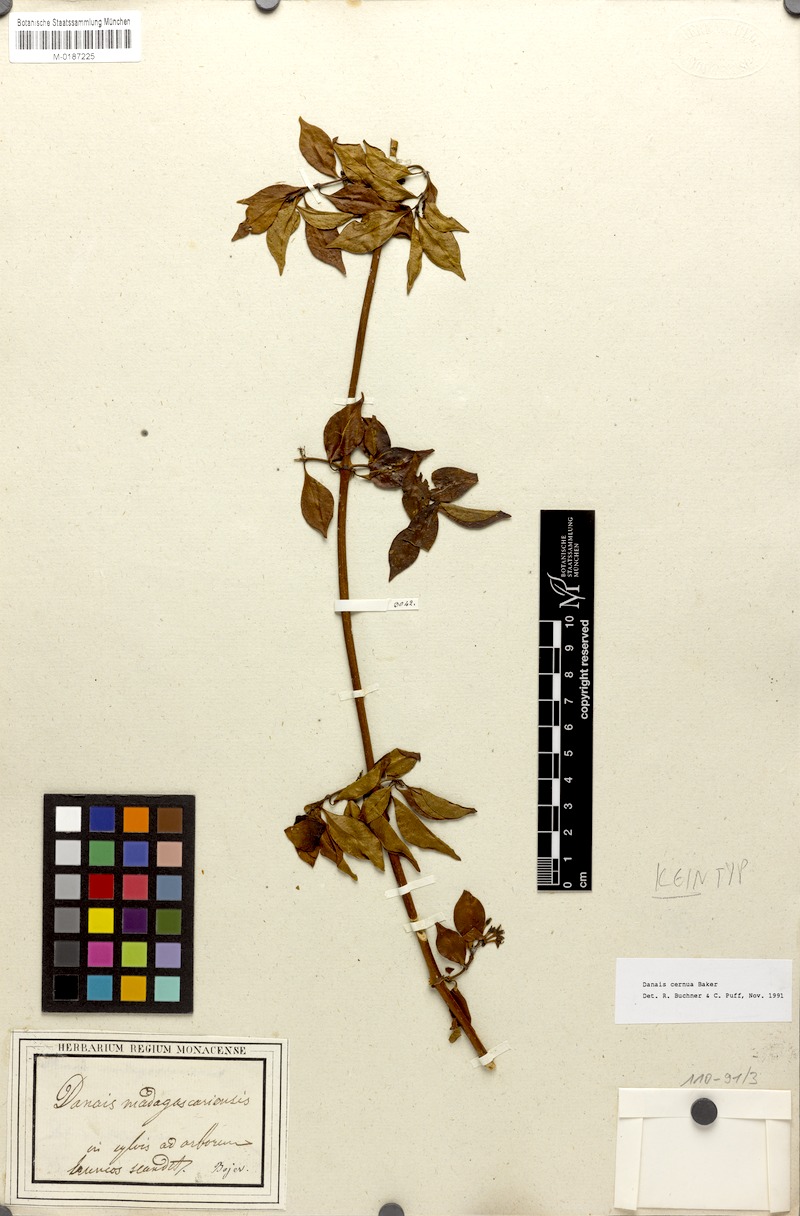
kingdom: Plantae
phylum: Tracheophyta
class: Magnoliopsida
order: Gentianales
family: Rubiaceae
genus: Danais
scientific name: Danais cernua
